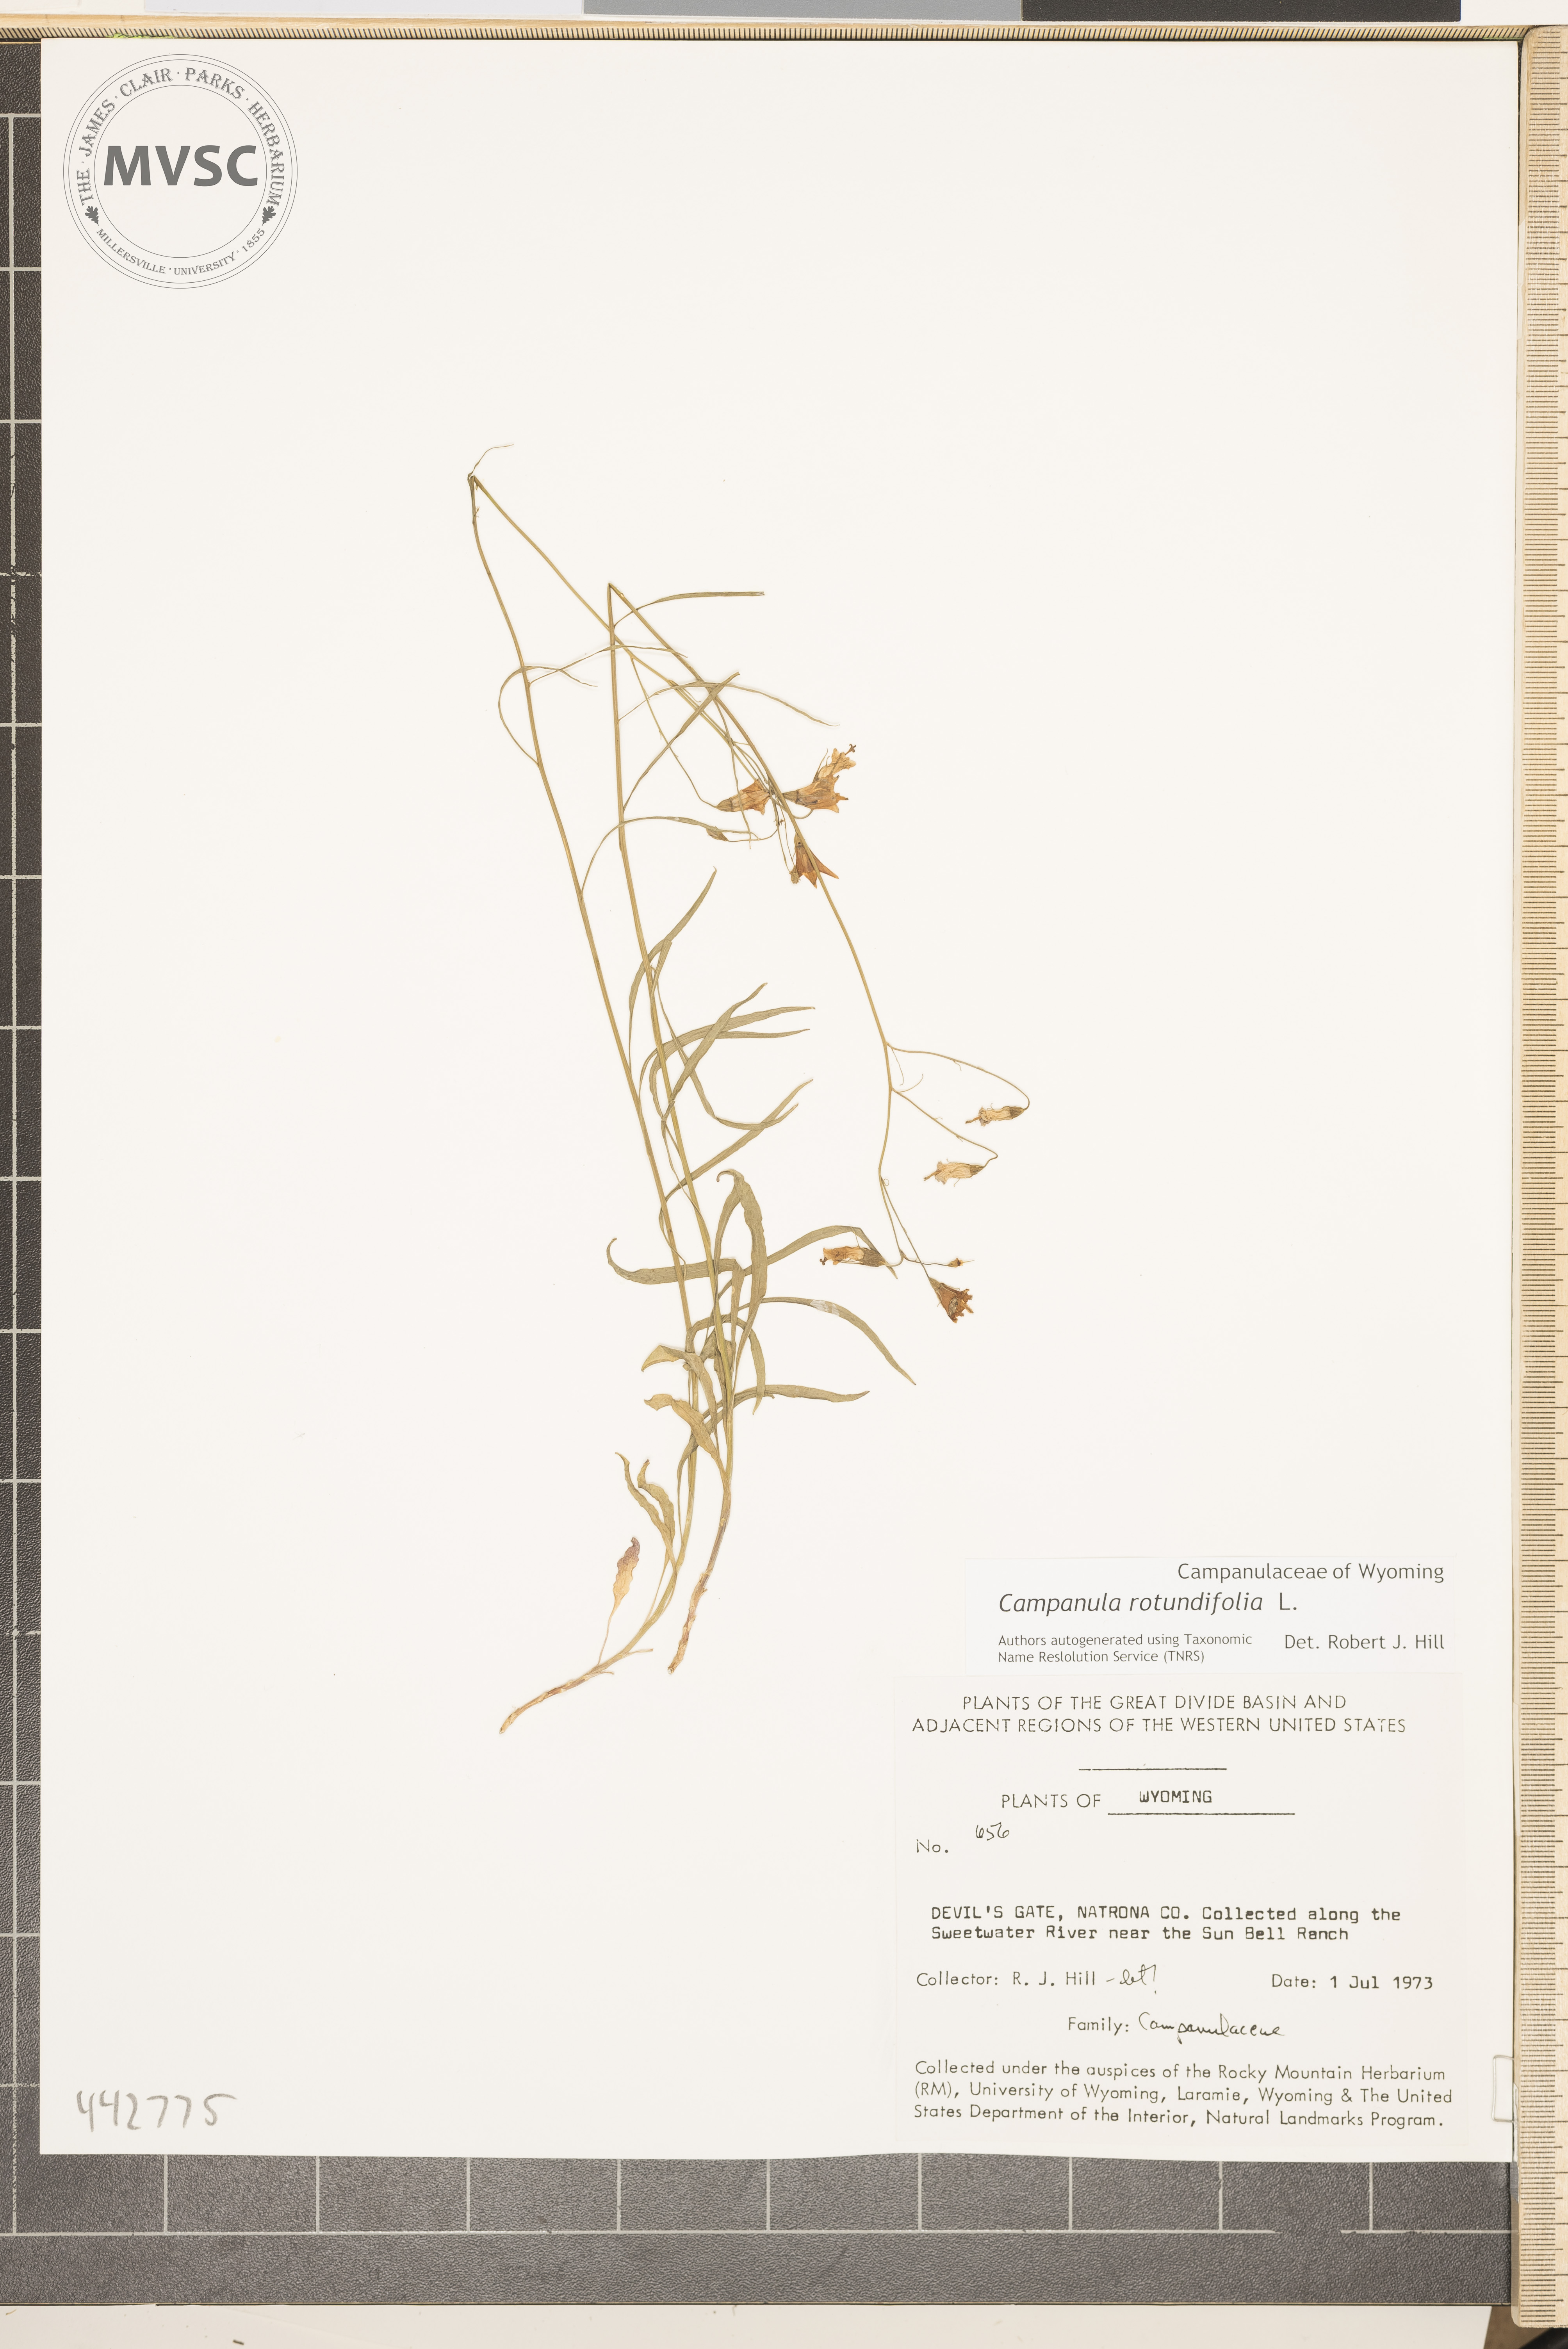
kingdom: Plantae
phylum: Tracheophyta
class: Magnoliopsida
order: Asterales
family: Campanulaceae
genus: Campanula
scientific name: Campanula rotundifolia
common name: Harebell
